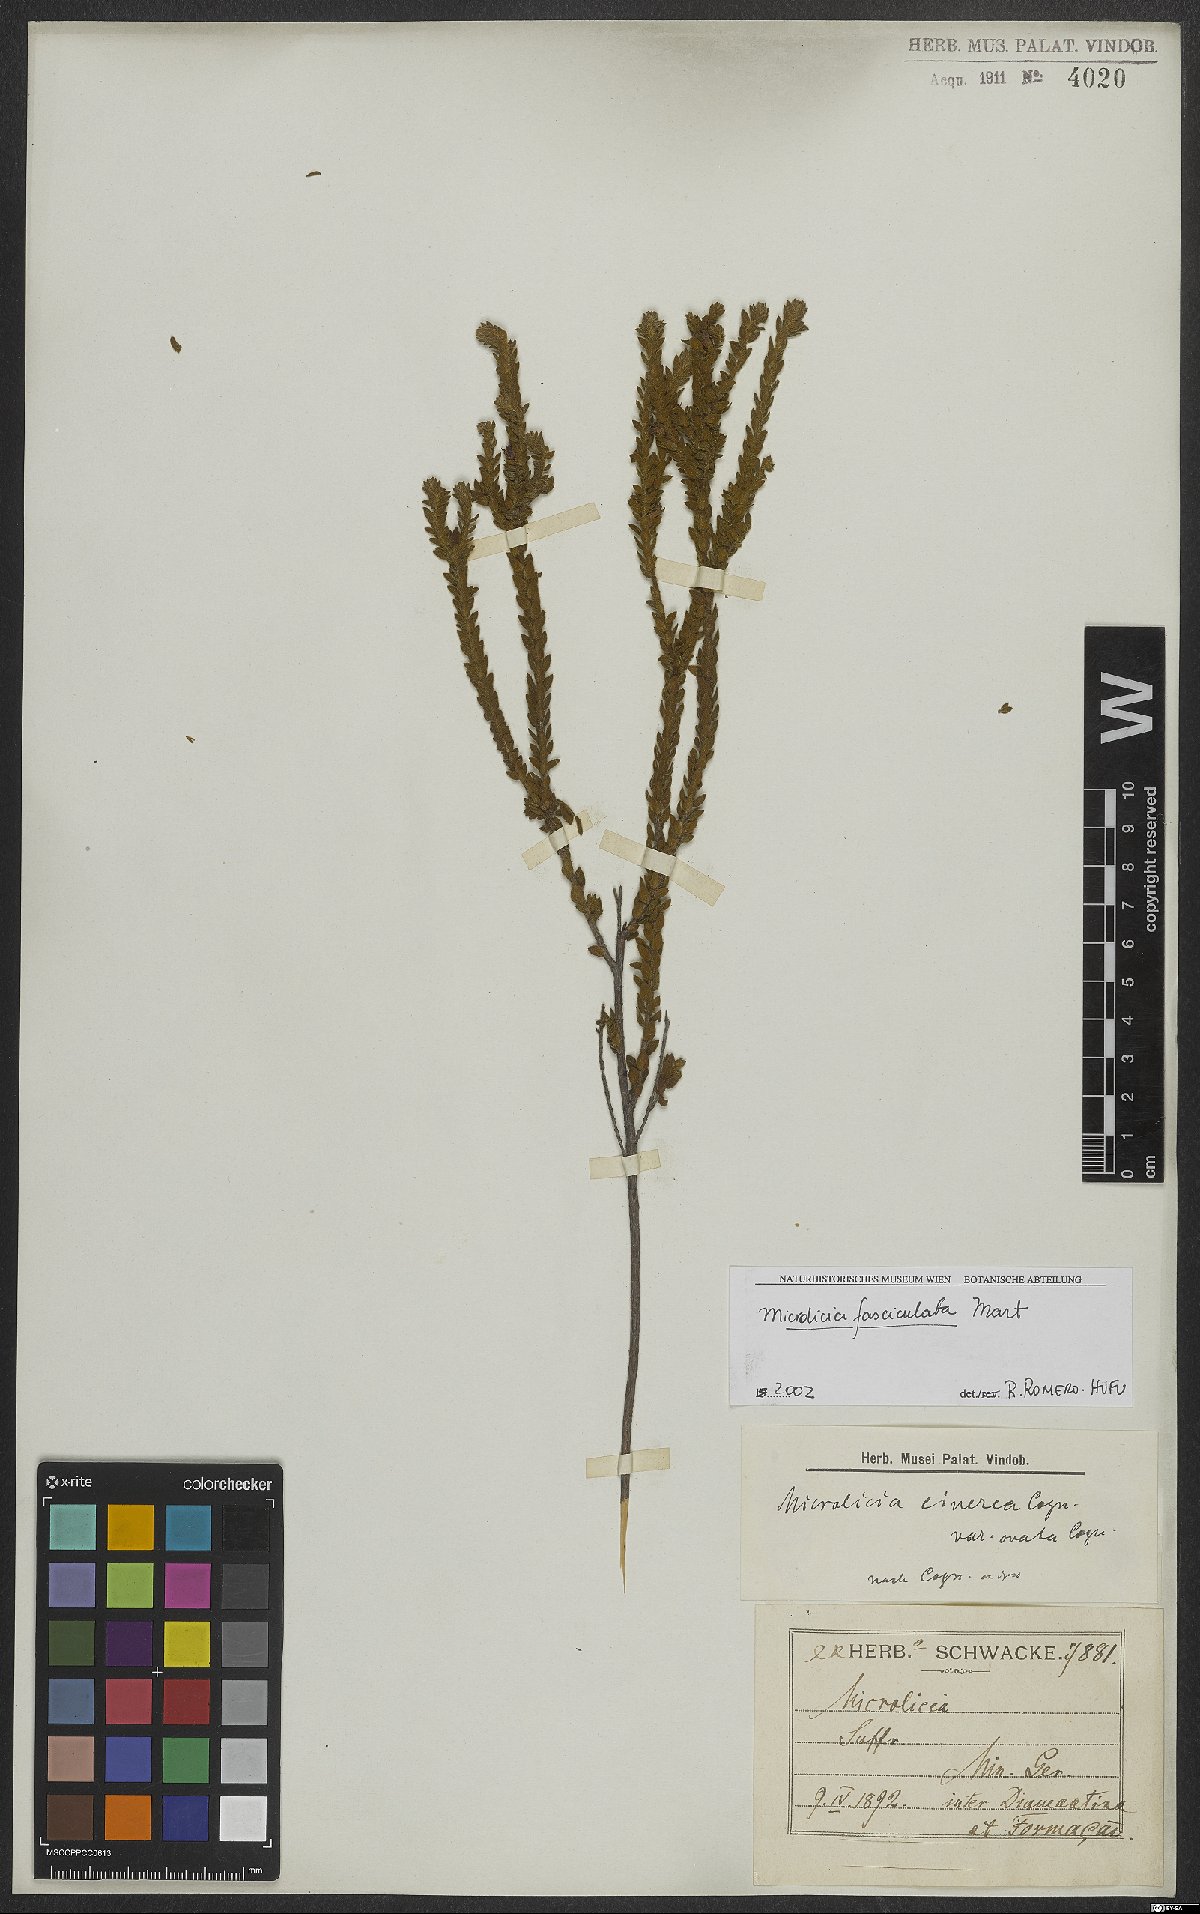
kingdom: Plantae
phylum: Tracheophyta
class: Magnoliopsida
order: Myrtales
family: Melastomataceae
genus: Microlicia
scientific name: Microlicia fasciculata
